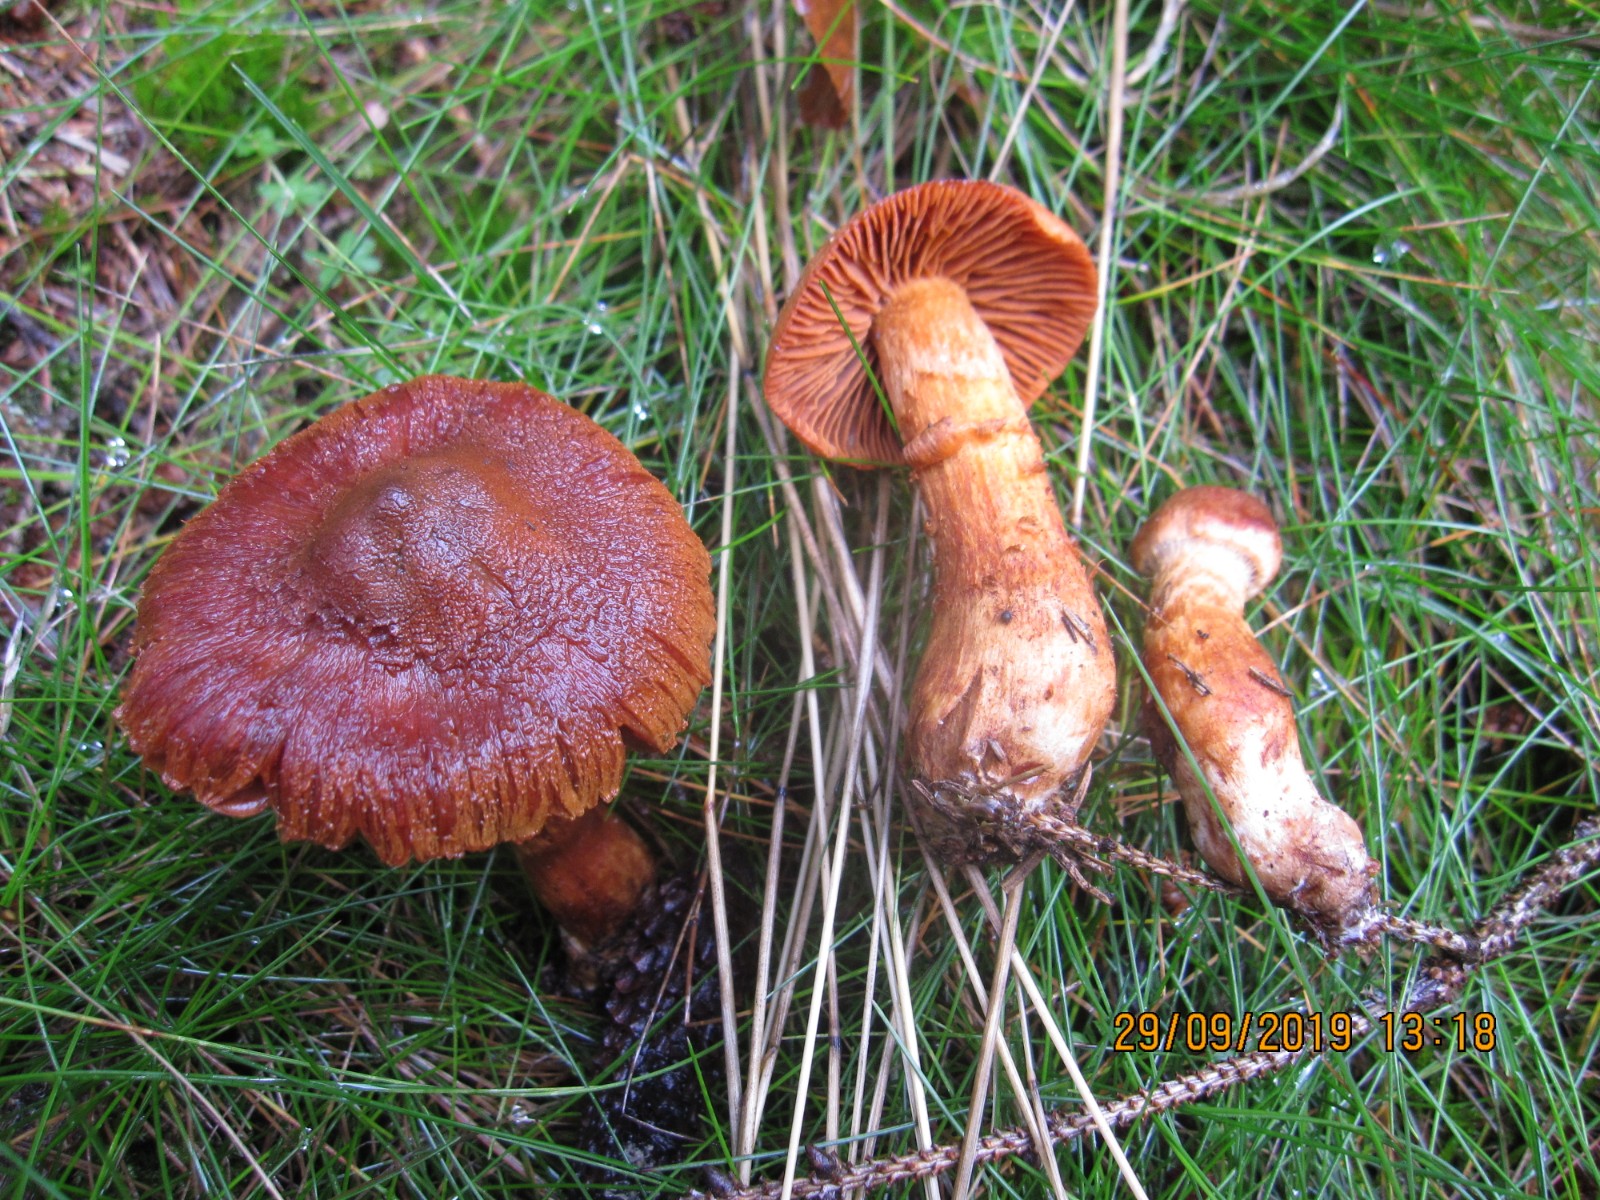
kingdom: Fungi
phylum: Basidiomycota
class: Agaricomycetes
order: Agaricales
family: Cortinariaceae
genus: Cortinarius
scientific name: Cortinarius rubellus
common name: puklet gift-slørhat
